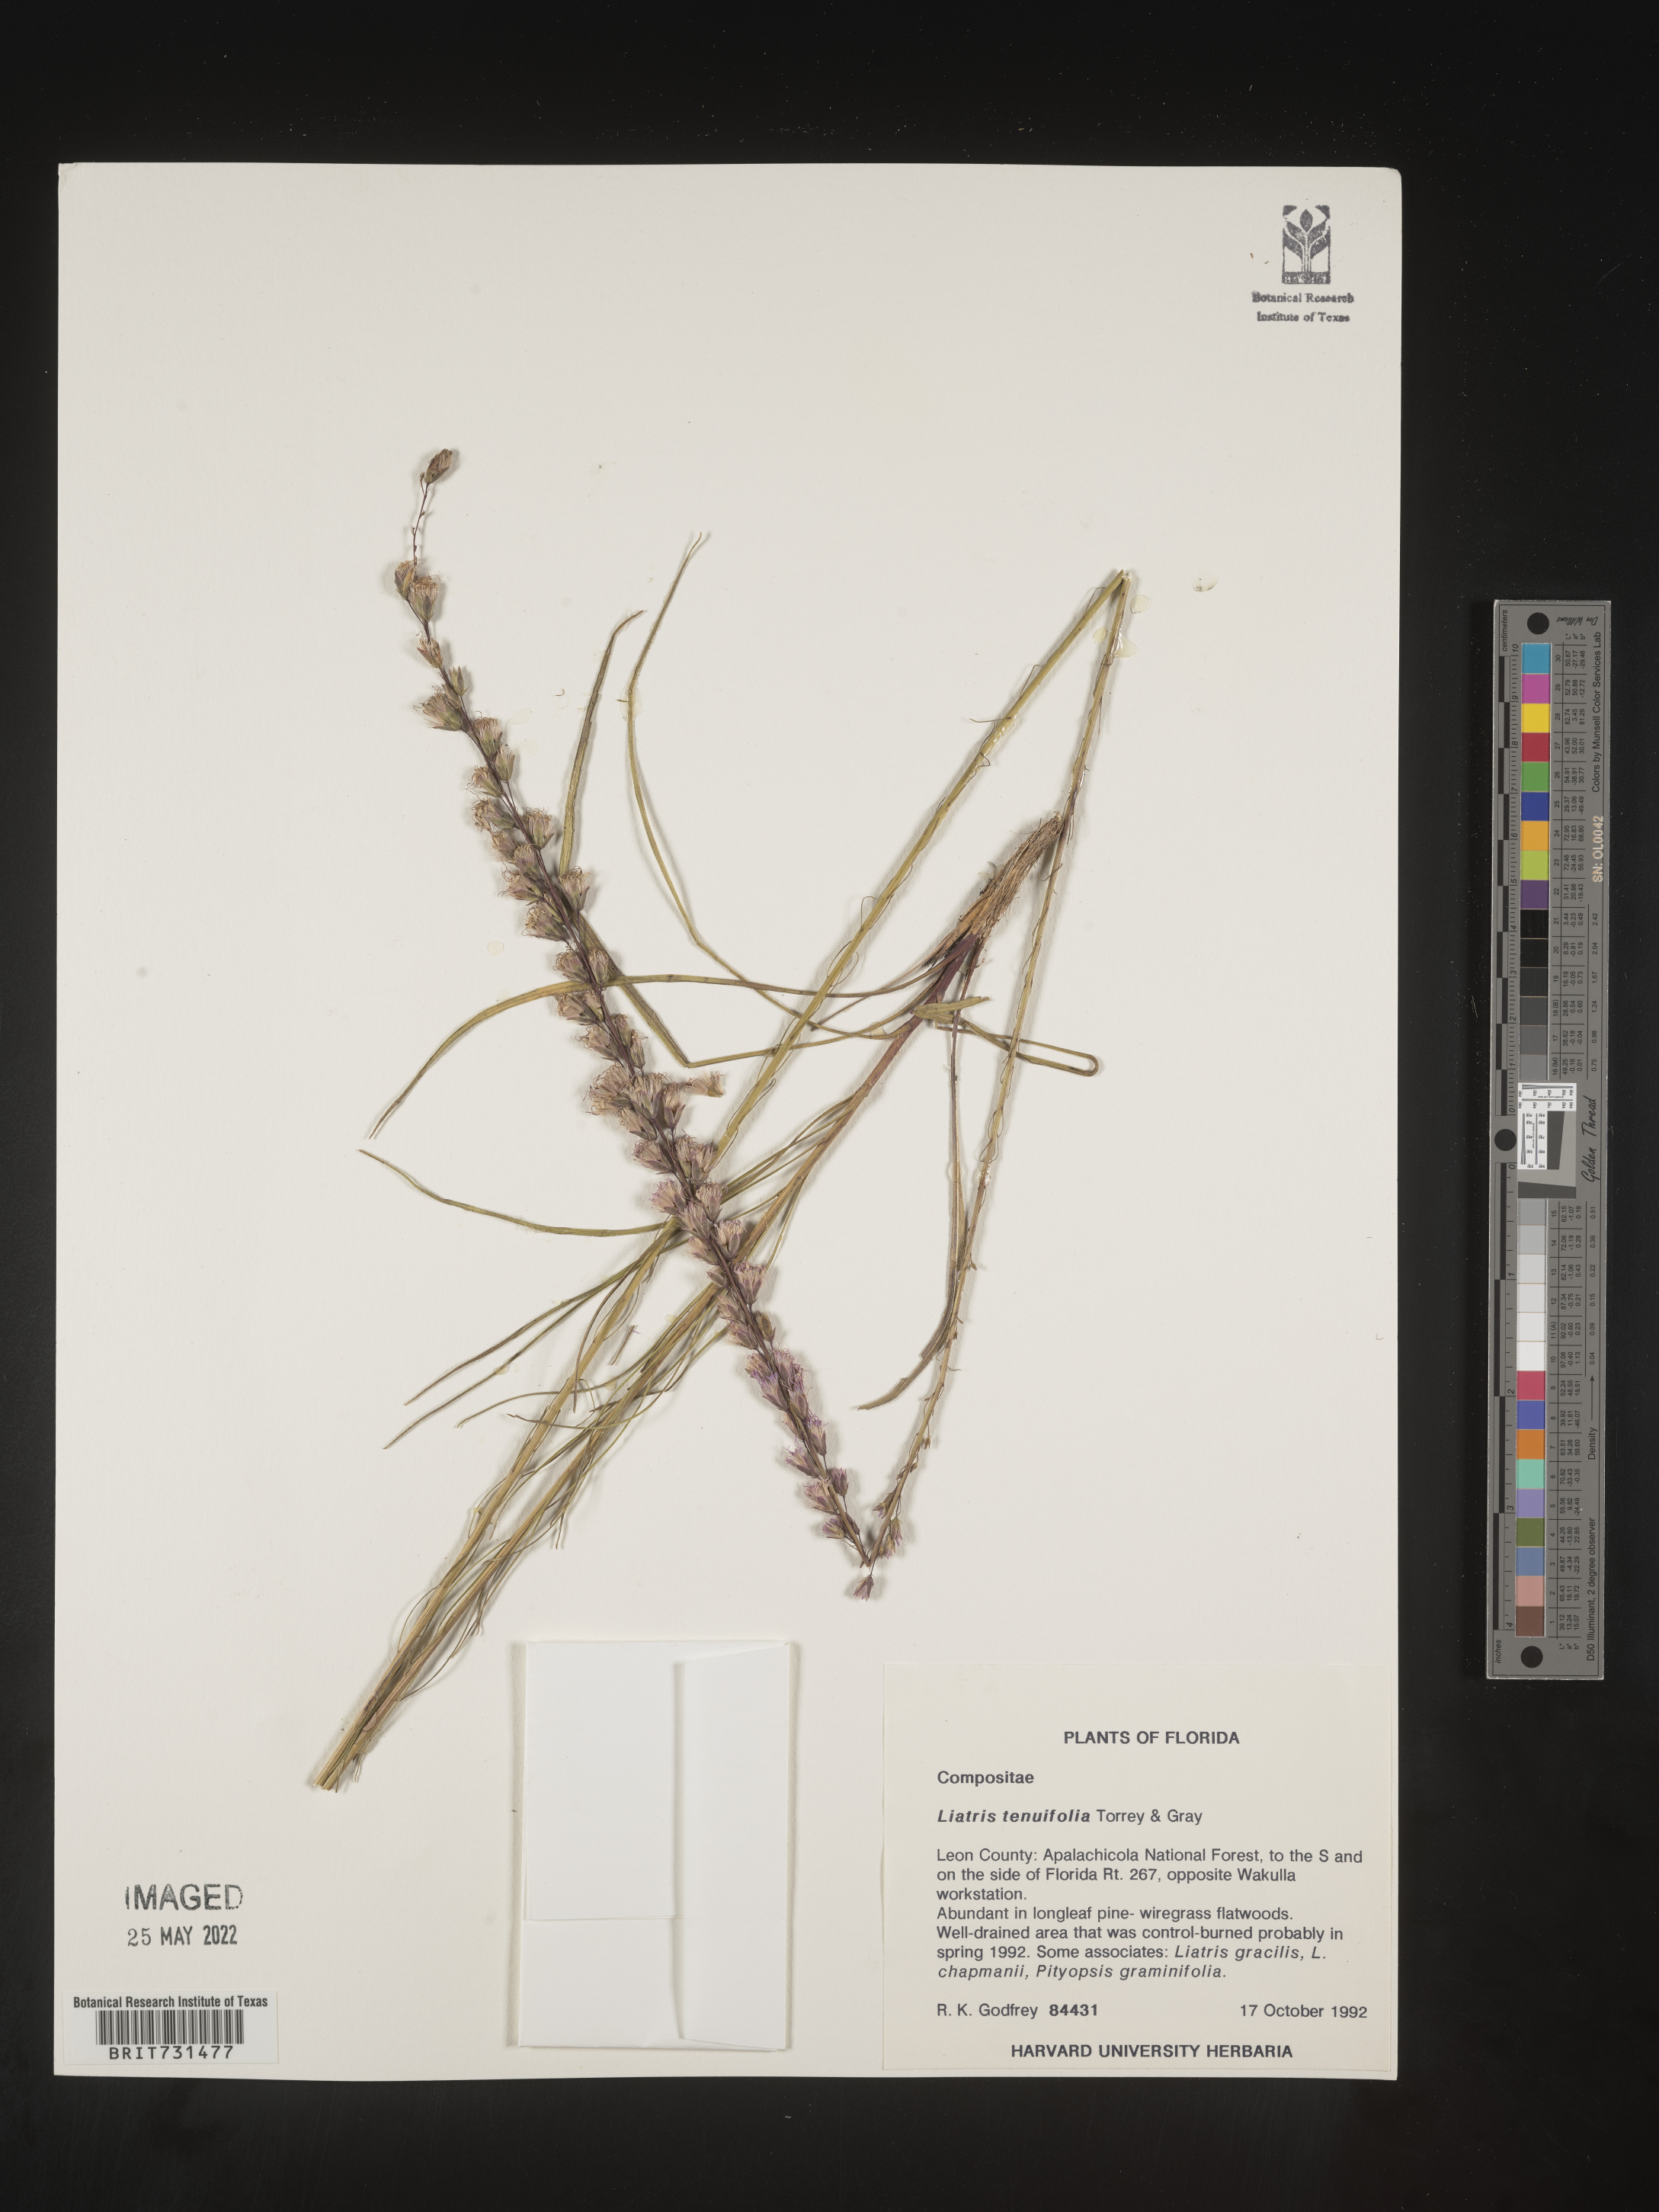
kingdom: Plantae
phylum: Tracheophyta
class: Magnoliopsida
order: Asterales
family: Asteraceae
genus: Liatris
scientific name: Liatris tenuifolia
